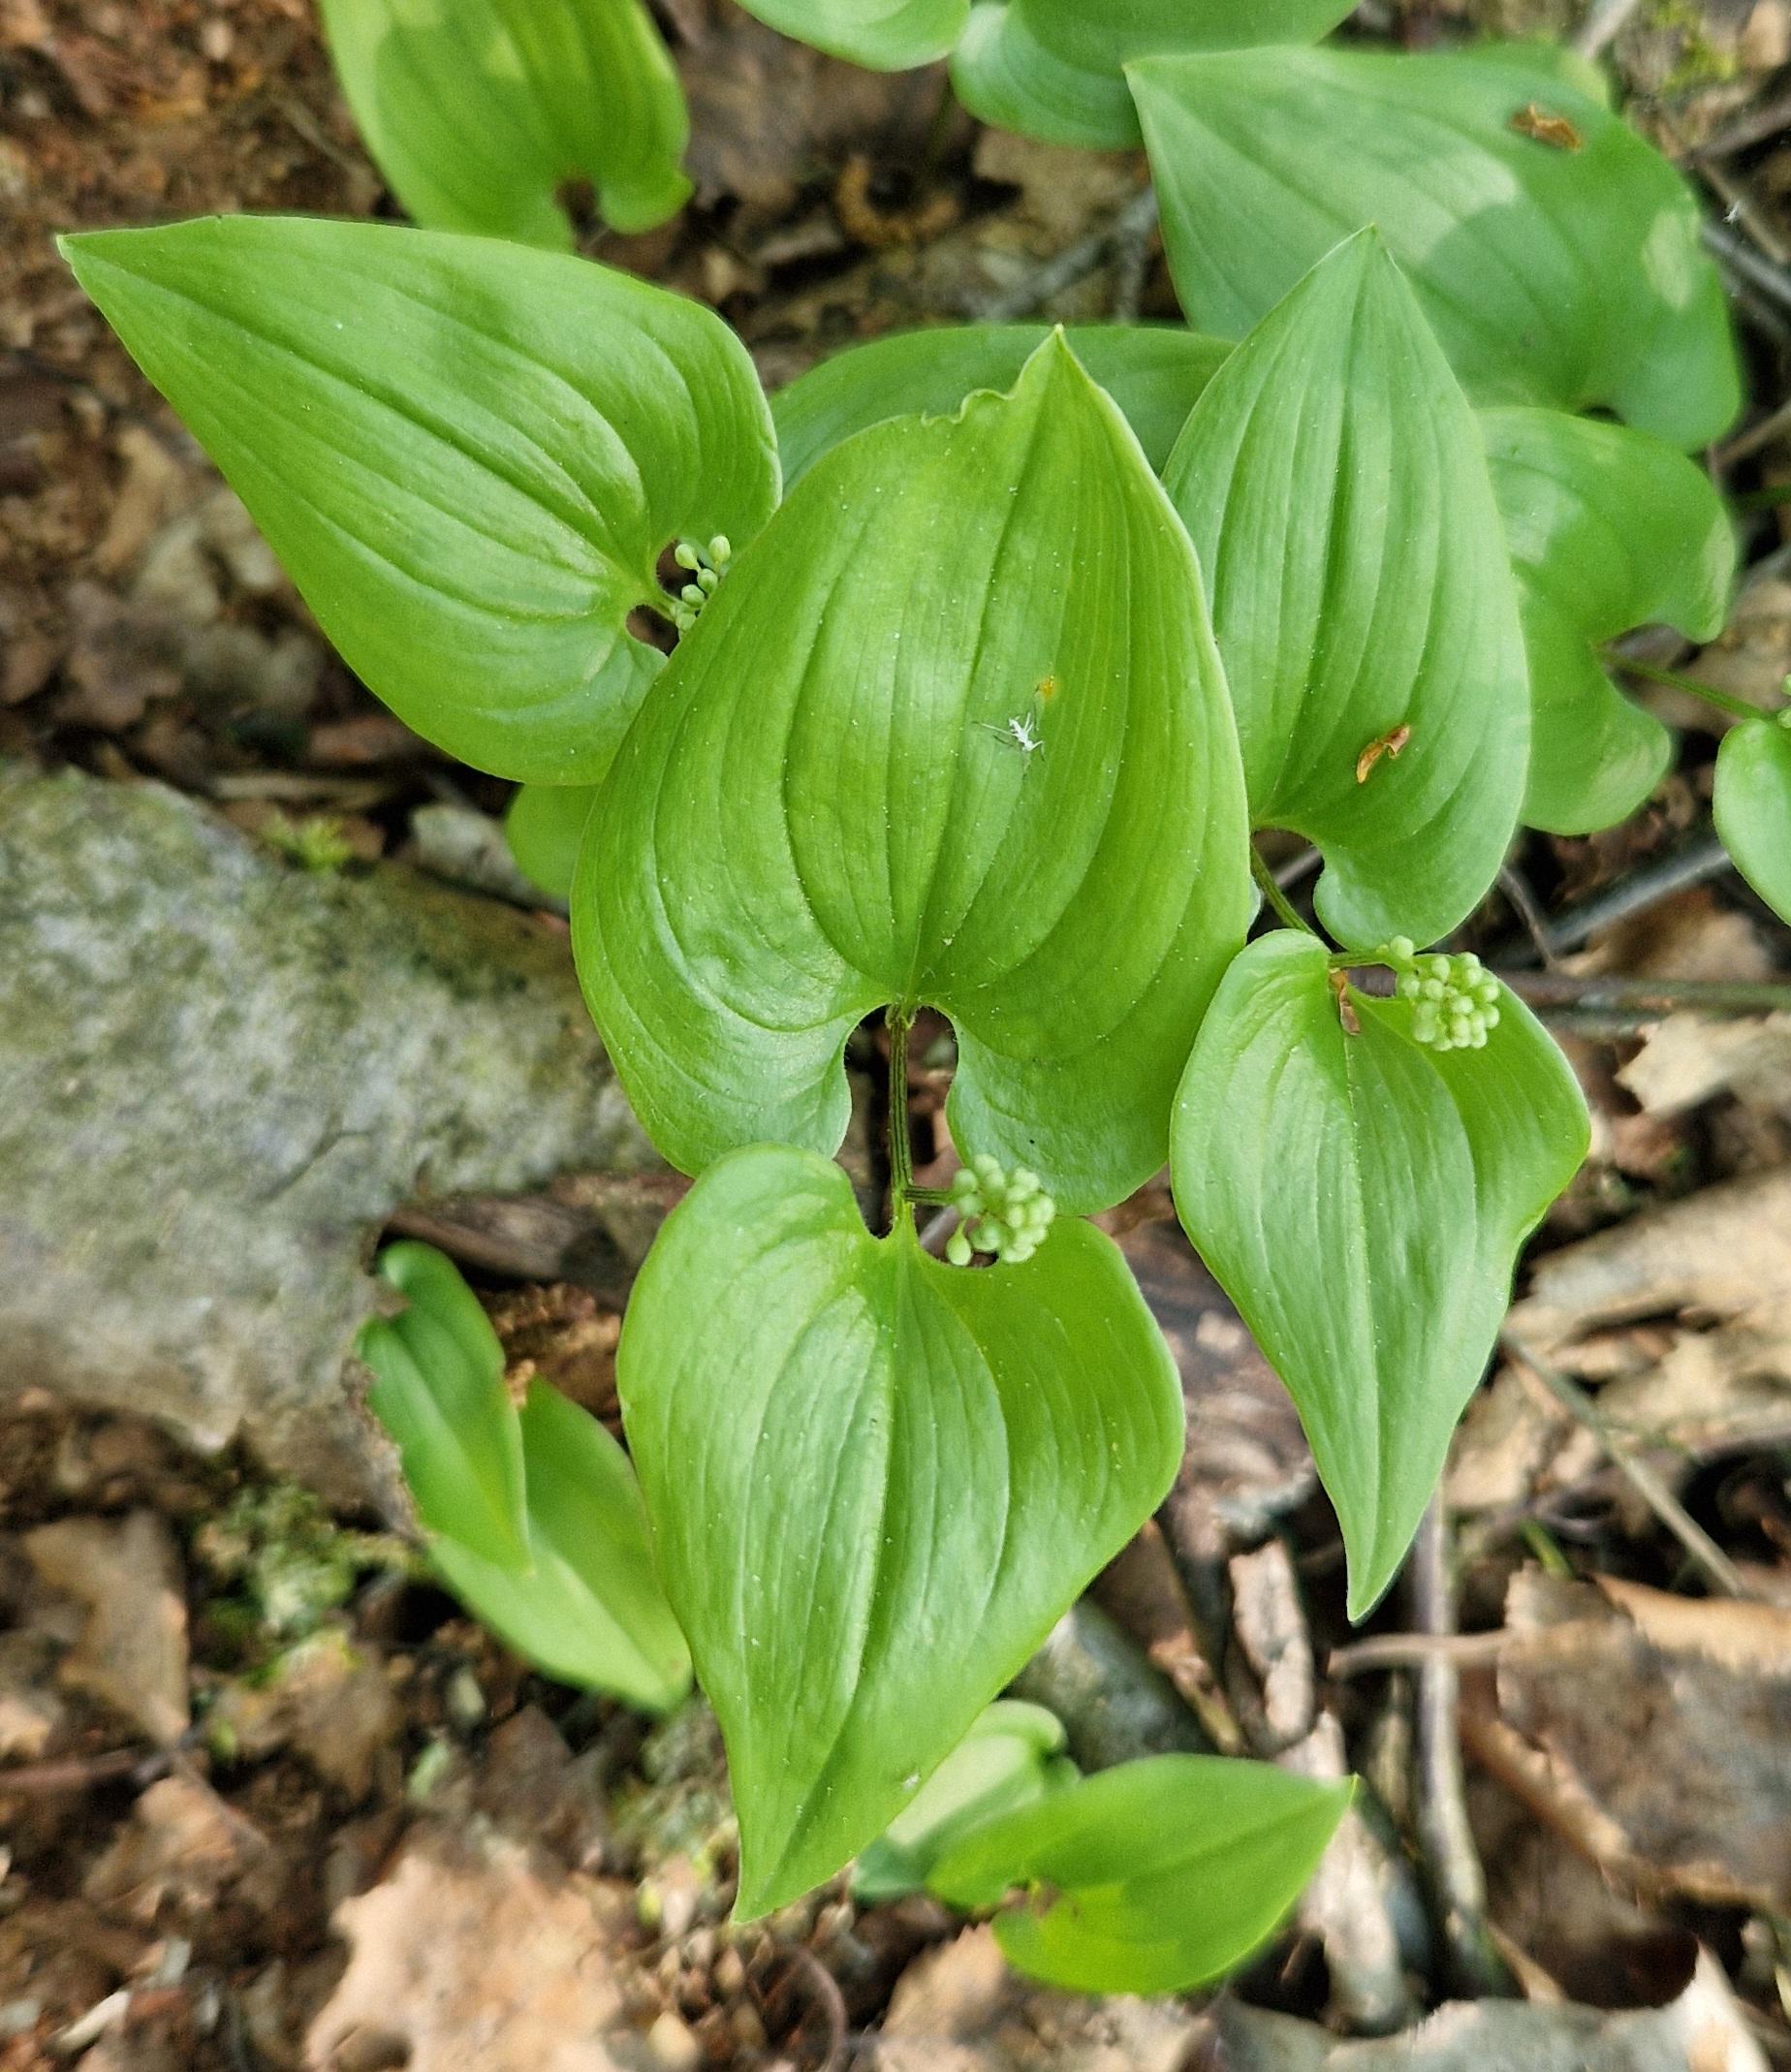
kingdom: Plantae
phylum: Tracheophyta
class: Liliopsida
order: Asparagales
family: Asparagaceae
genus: Maianthemum
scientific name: Maianthemum bifolium
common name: Majblomst
